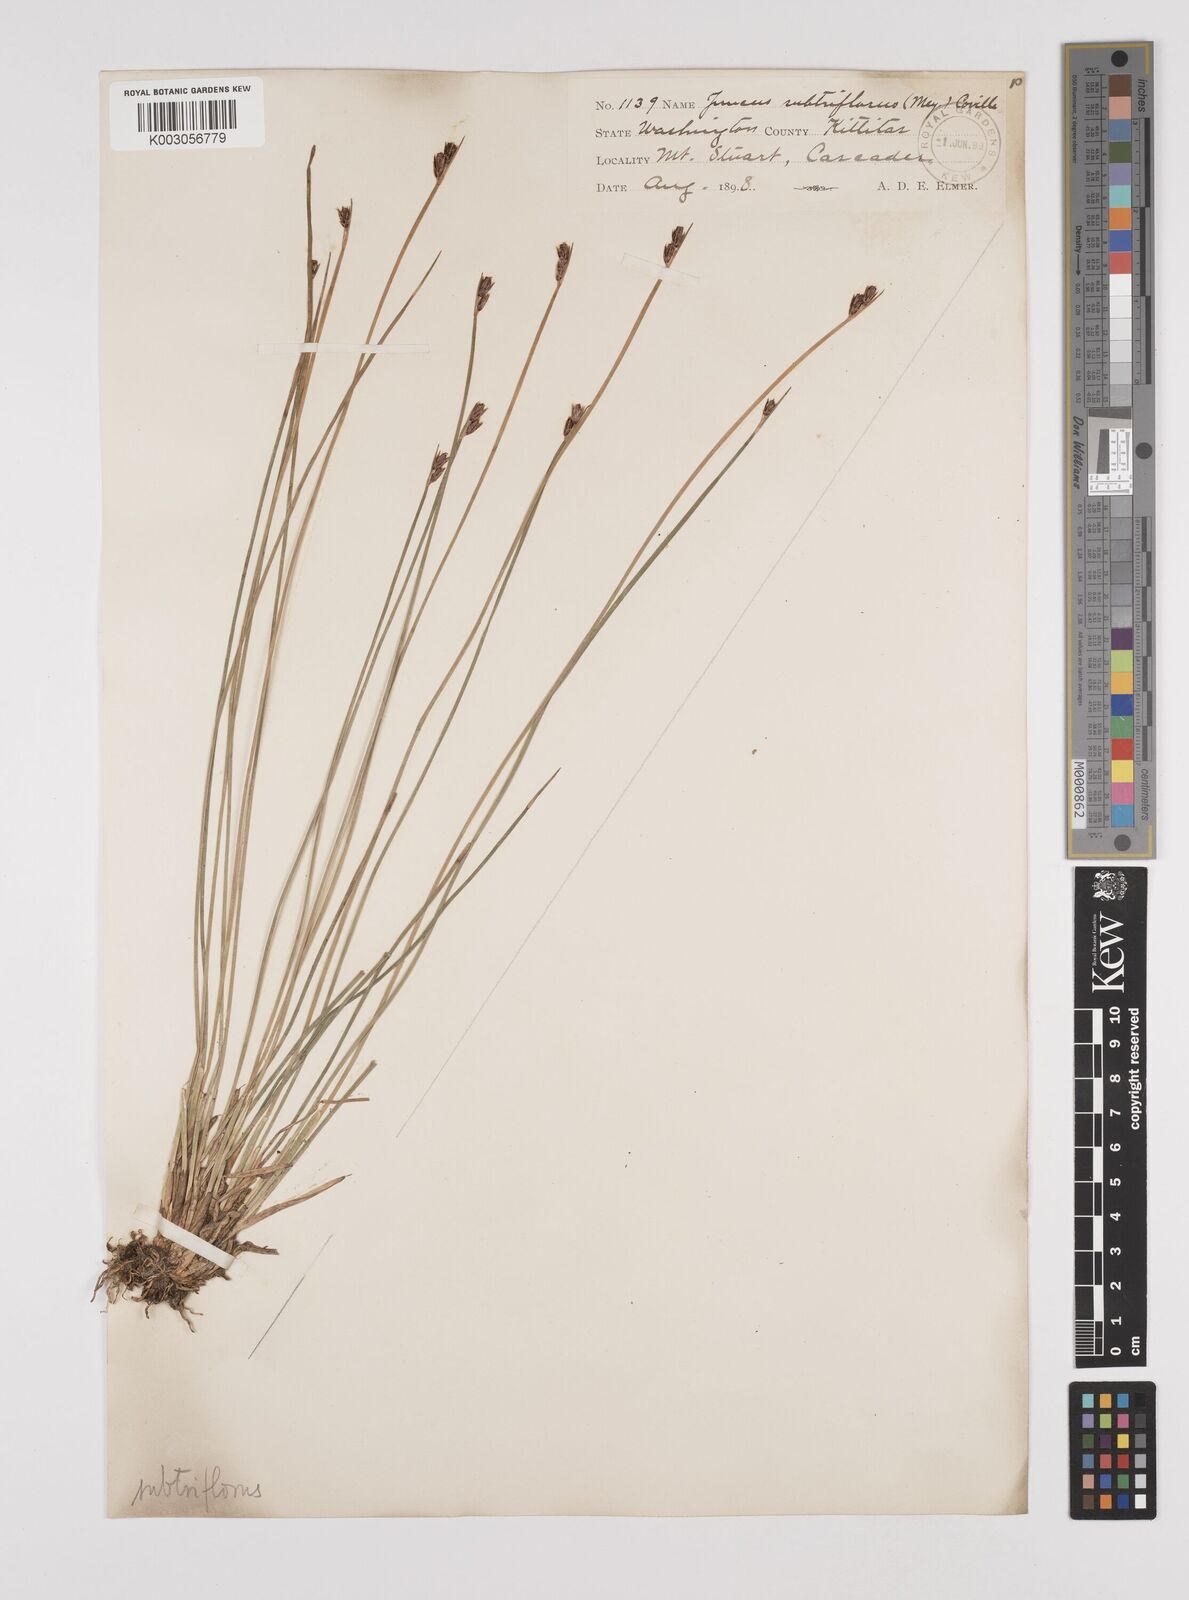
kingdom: Plantae
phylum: Tracheophyta
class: Liliopsida
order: Poales
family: Juncaceae
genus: Juncus
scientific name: Juncus drummondii
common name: Drummond's rush
